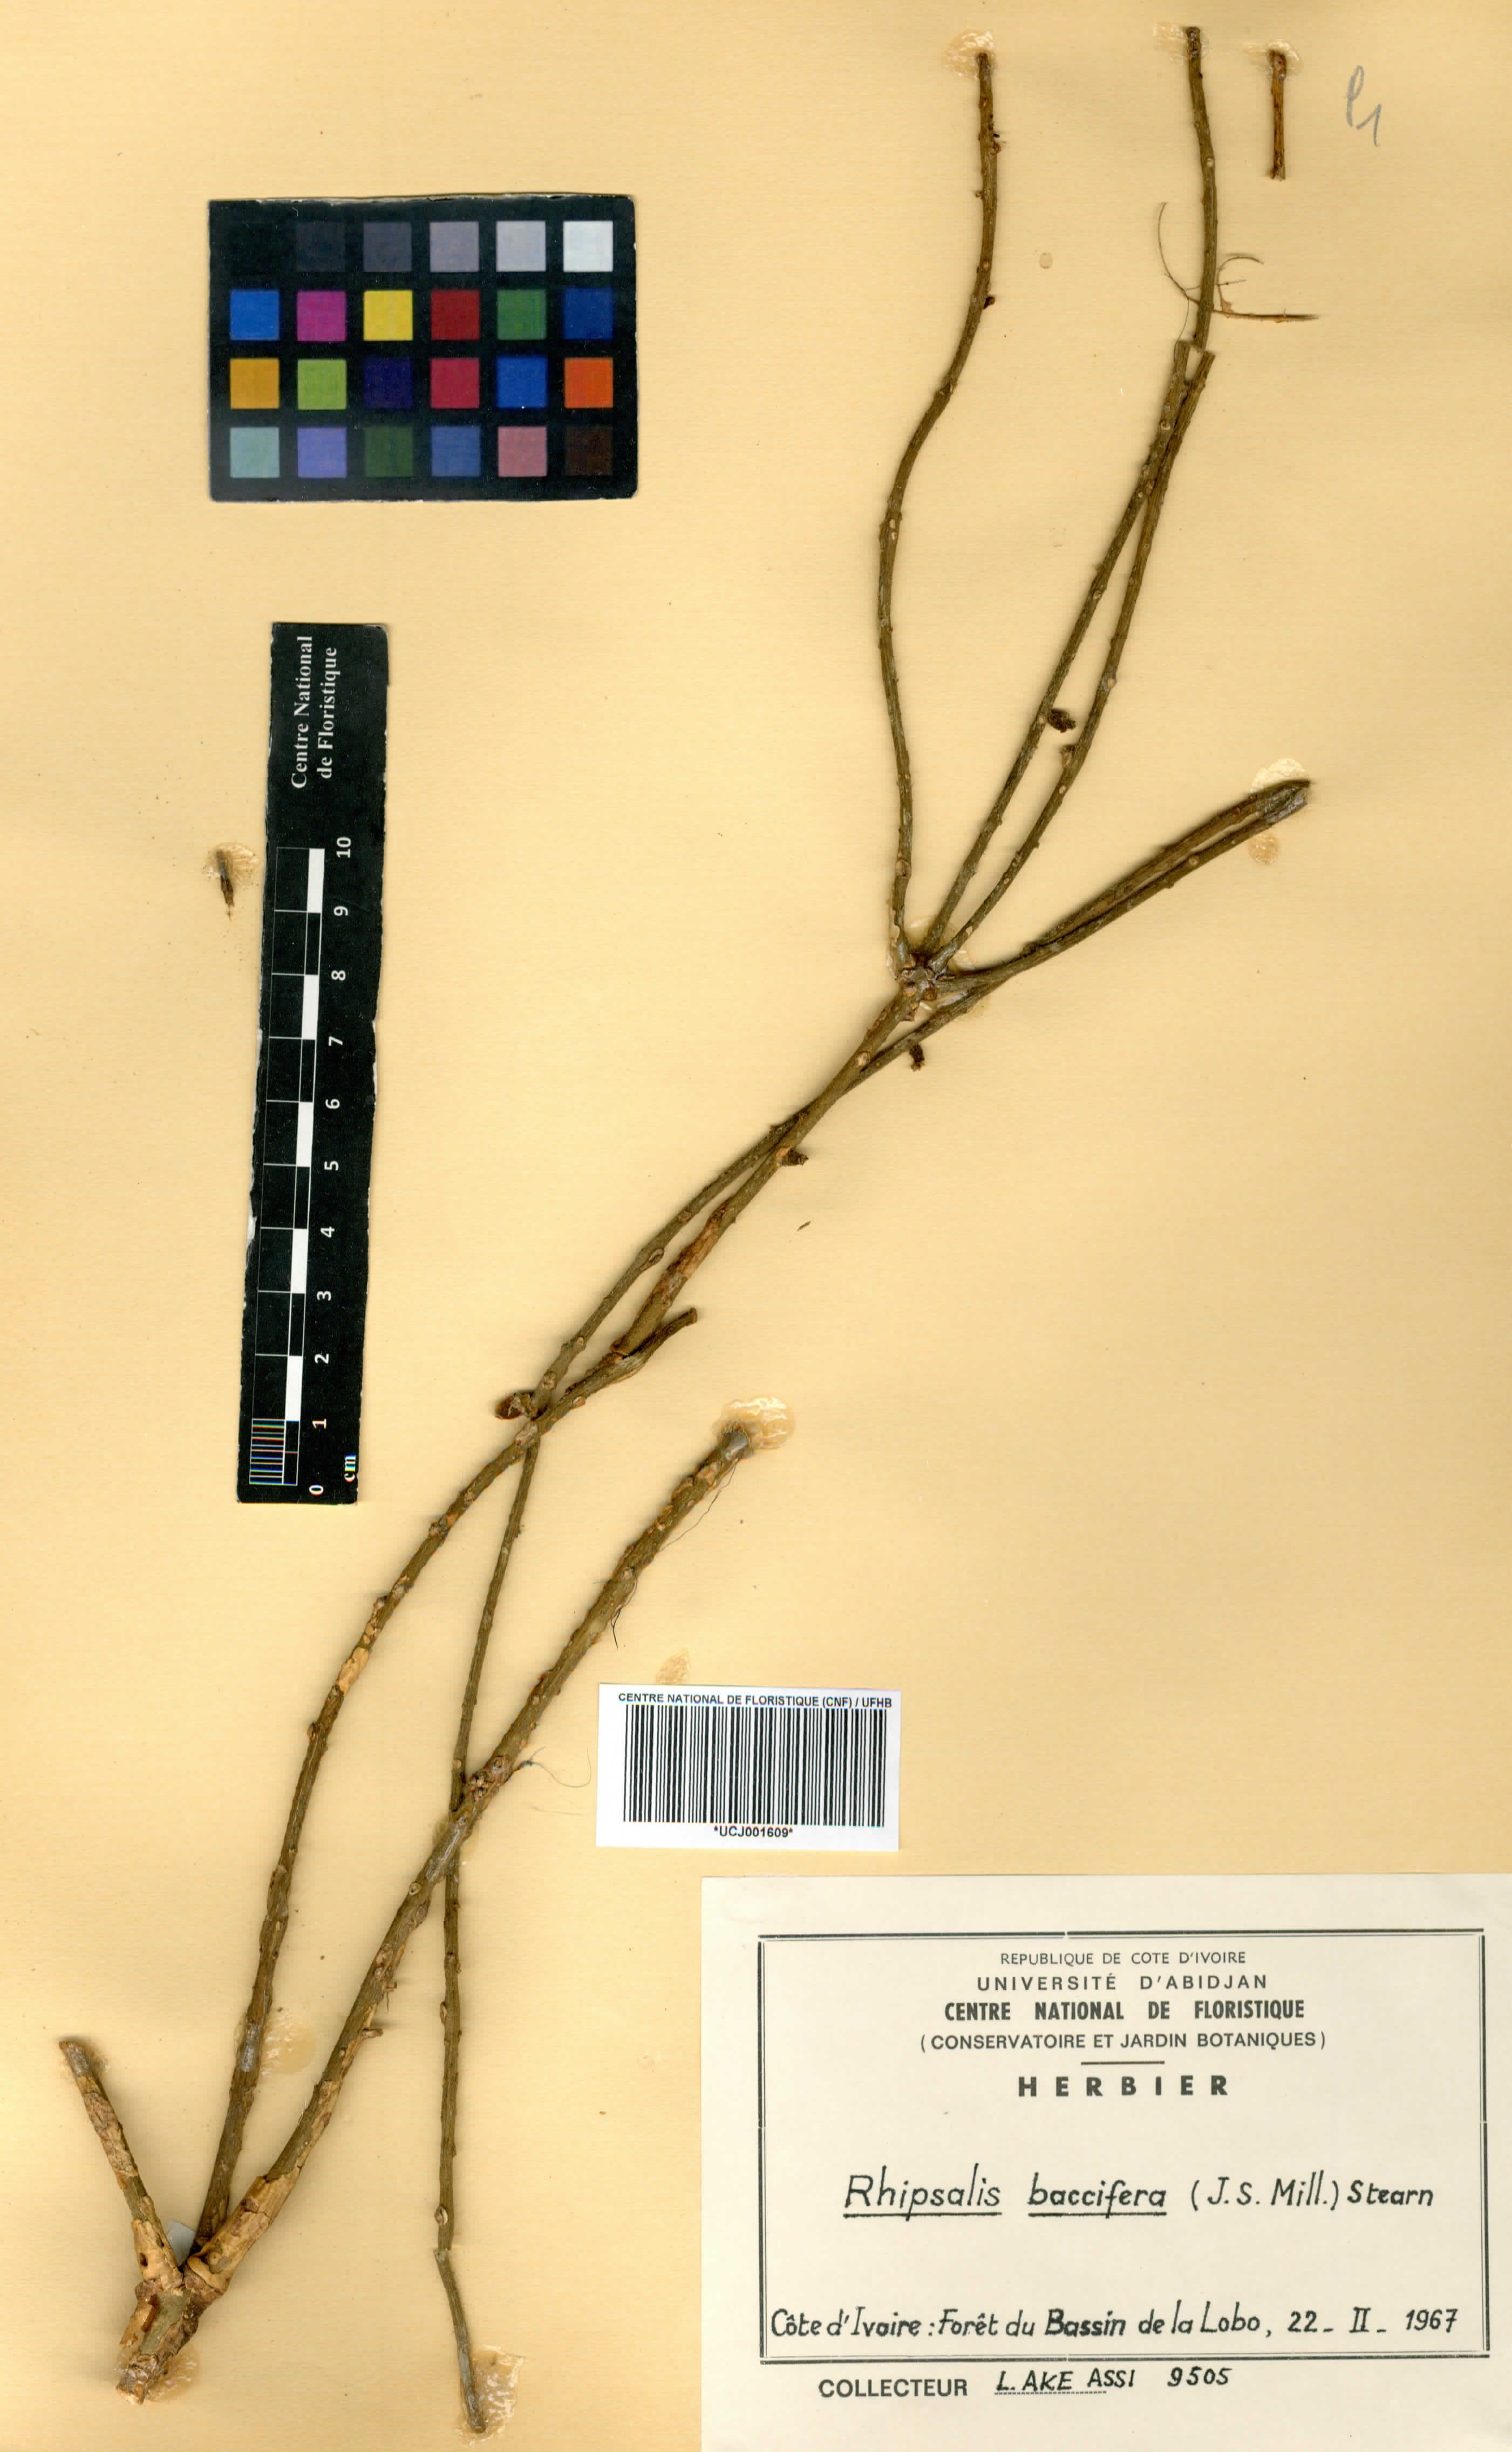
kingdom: Plantae
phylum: Tracheophyta
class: Magnoliopsida
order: Caryophyllales
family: Cactaceae
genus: Rhipsalis
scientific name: Rhipsalis baccifera
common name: Mistletoe cactus
